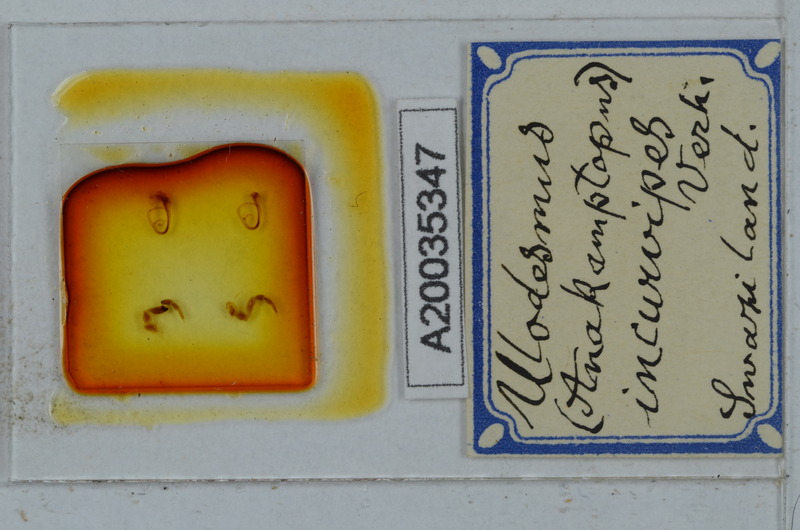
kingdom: Animalia
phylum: Arthropoda
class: Diplopoda
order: Polydesmida
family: Gomphodesmidae
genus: Ulodesmus
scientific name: Ulodesmus incurvipes
